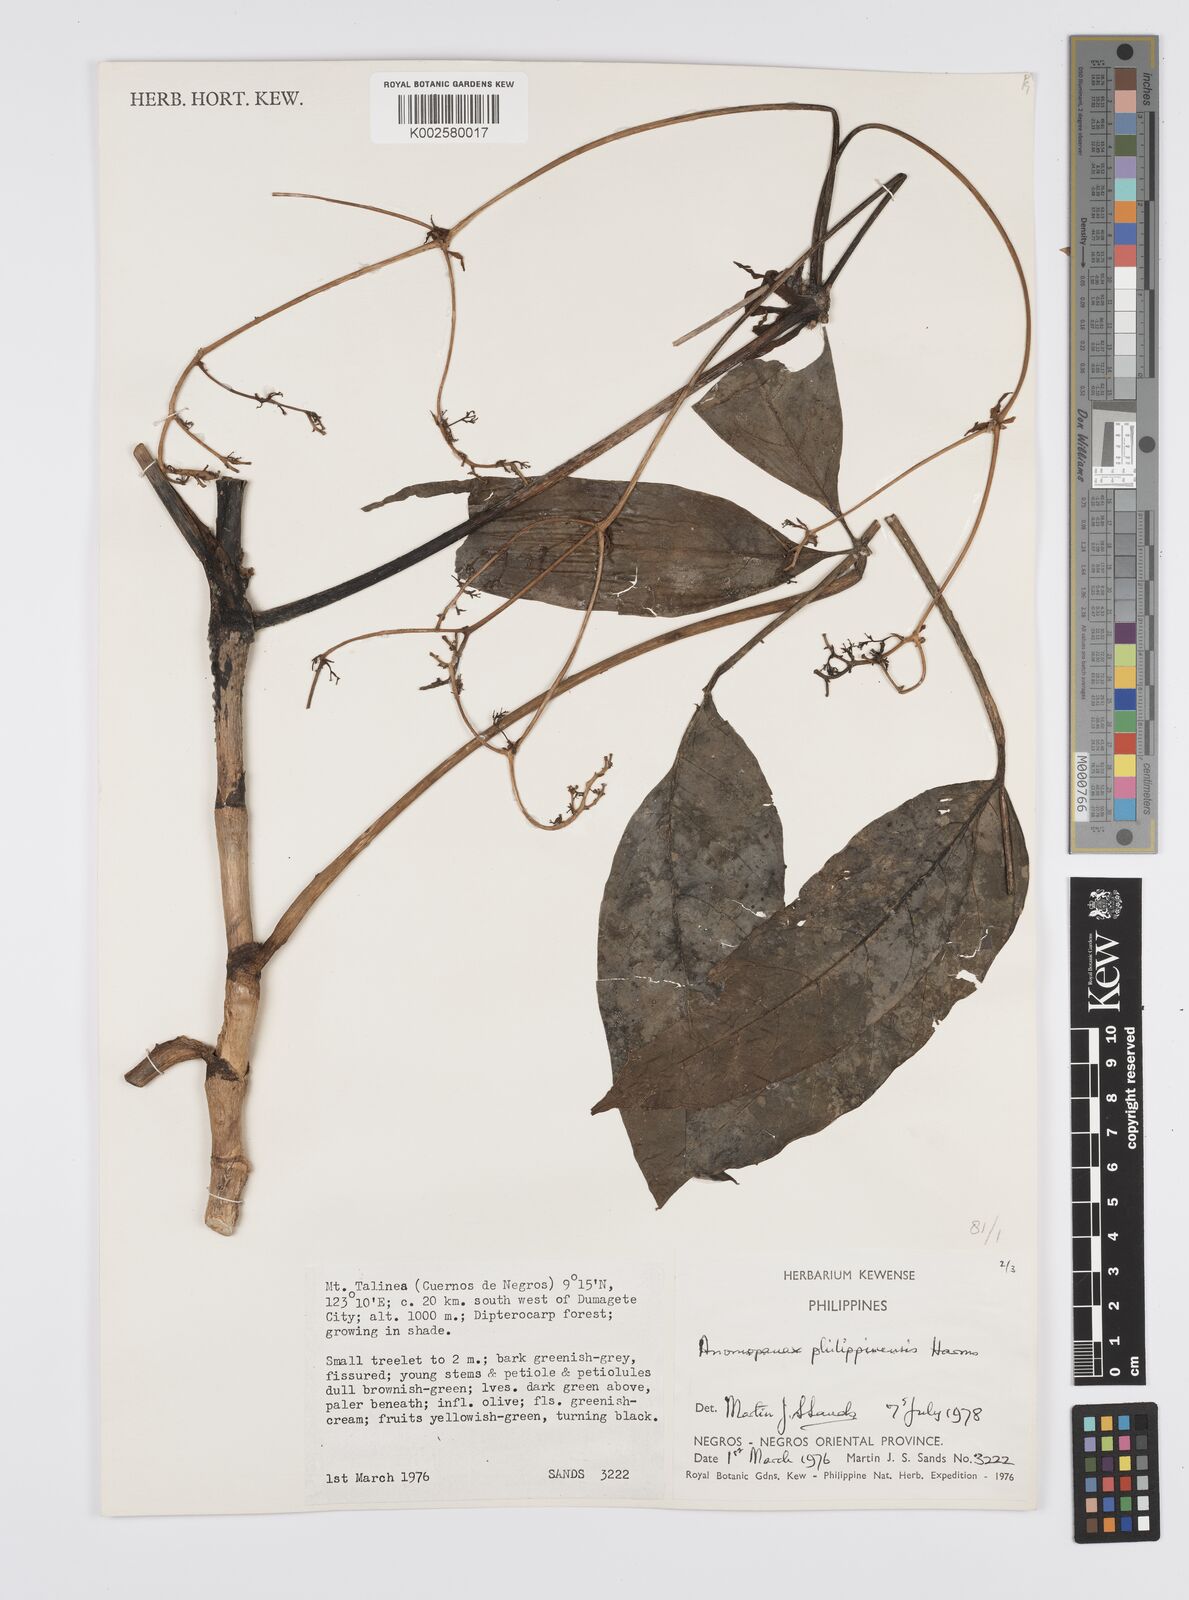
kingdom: Plantae
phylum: Tracheophyta
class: Magnoliopsida
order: Apiales
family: Apiaceae
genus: Mackinlaya
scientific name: Mackinlaya
